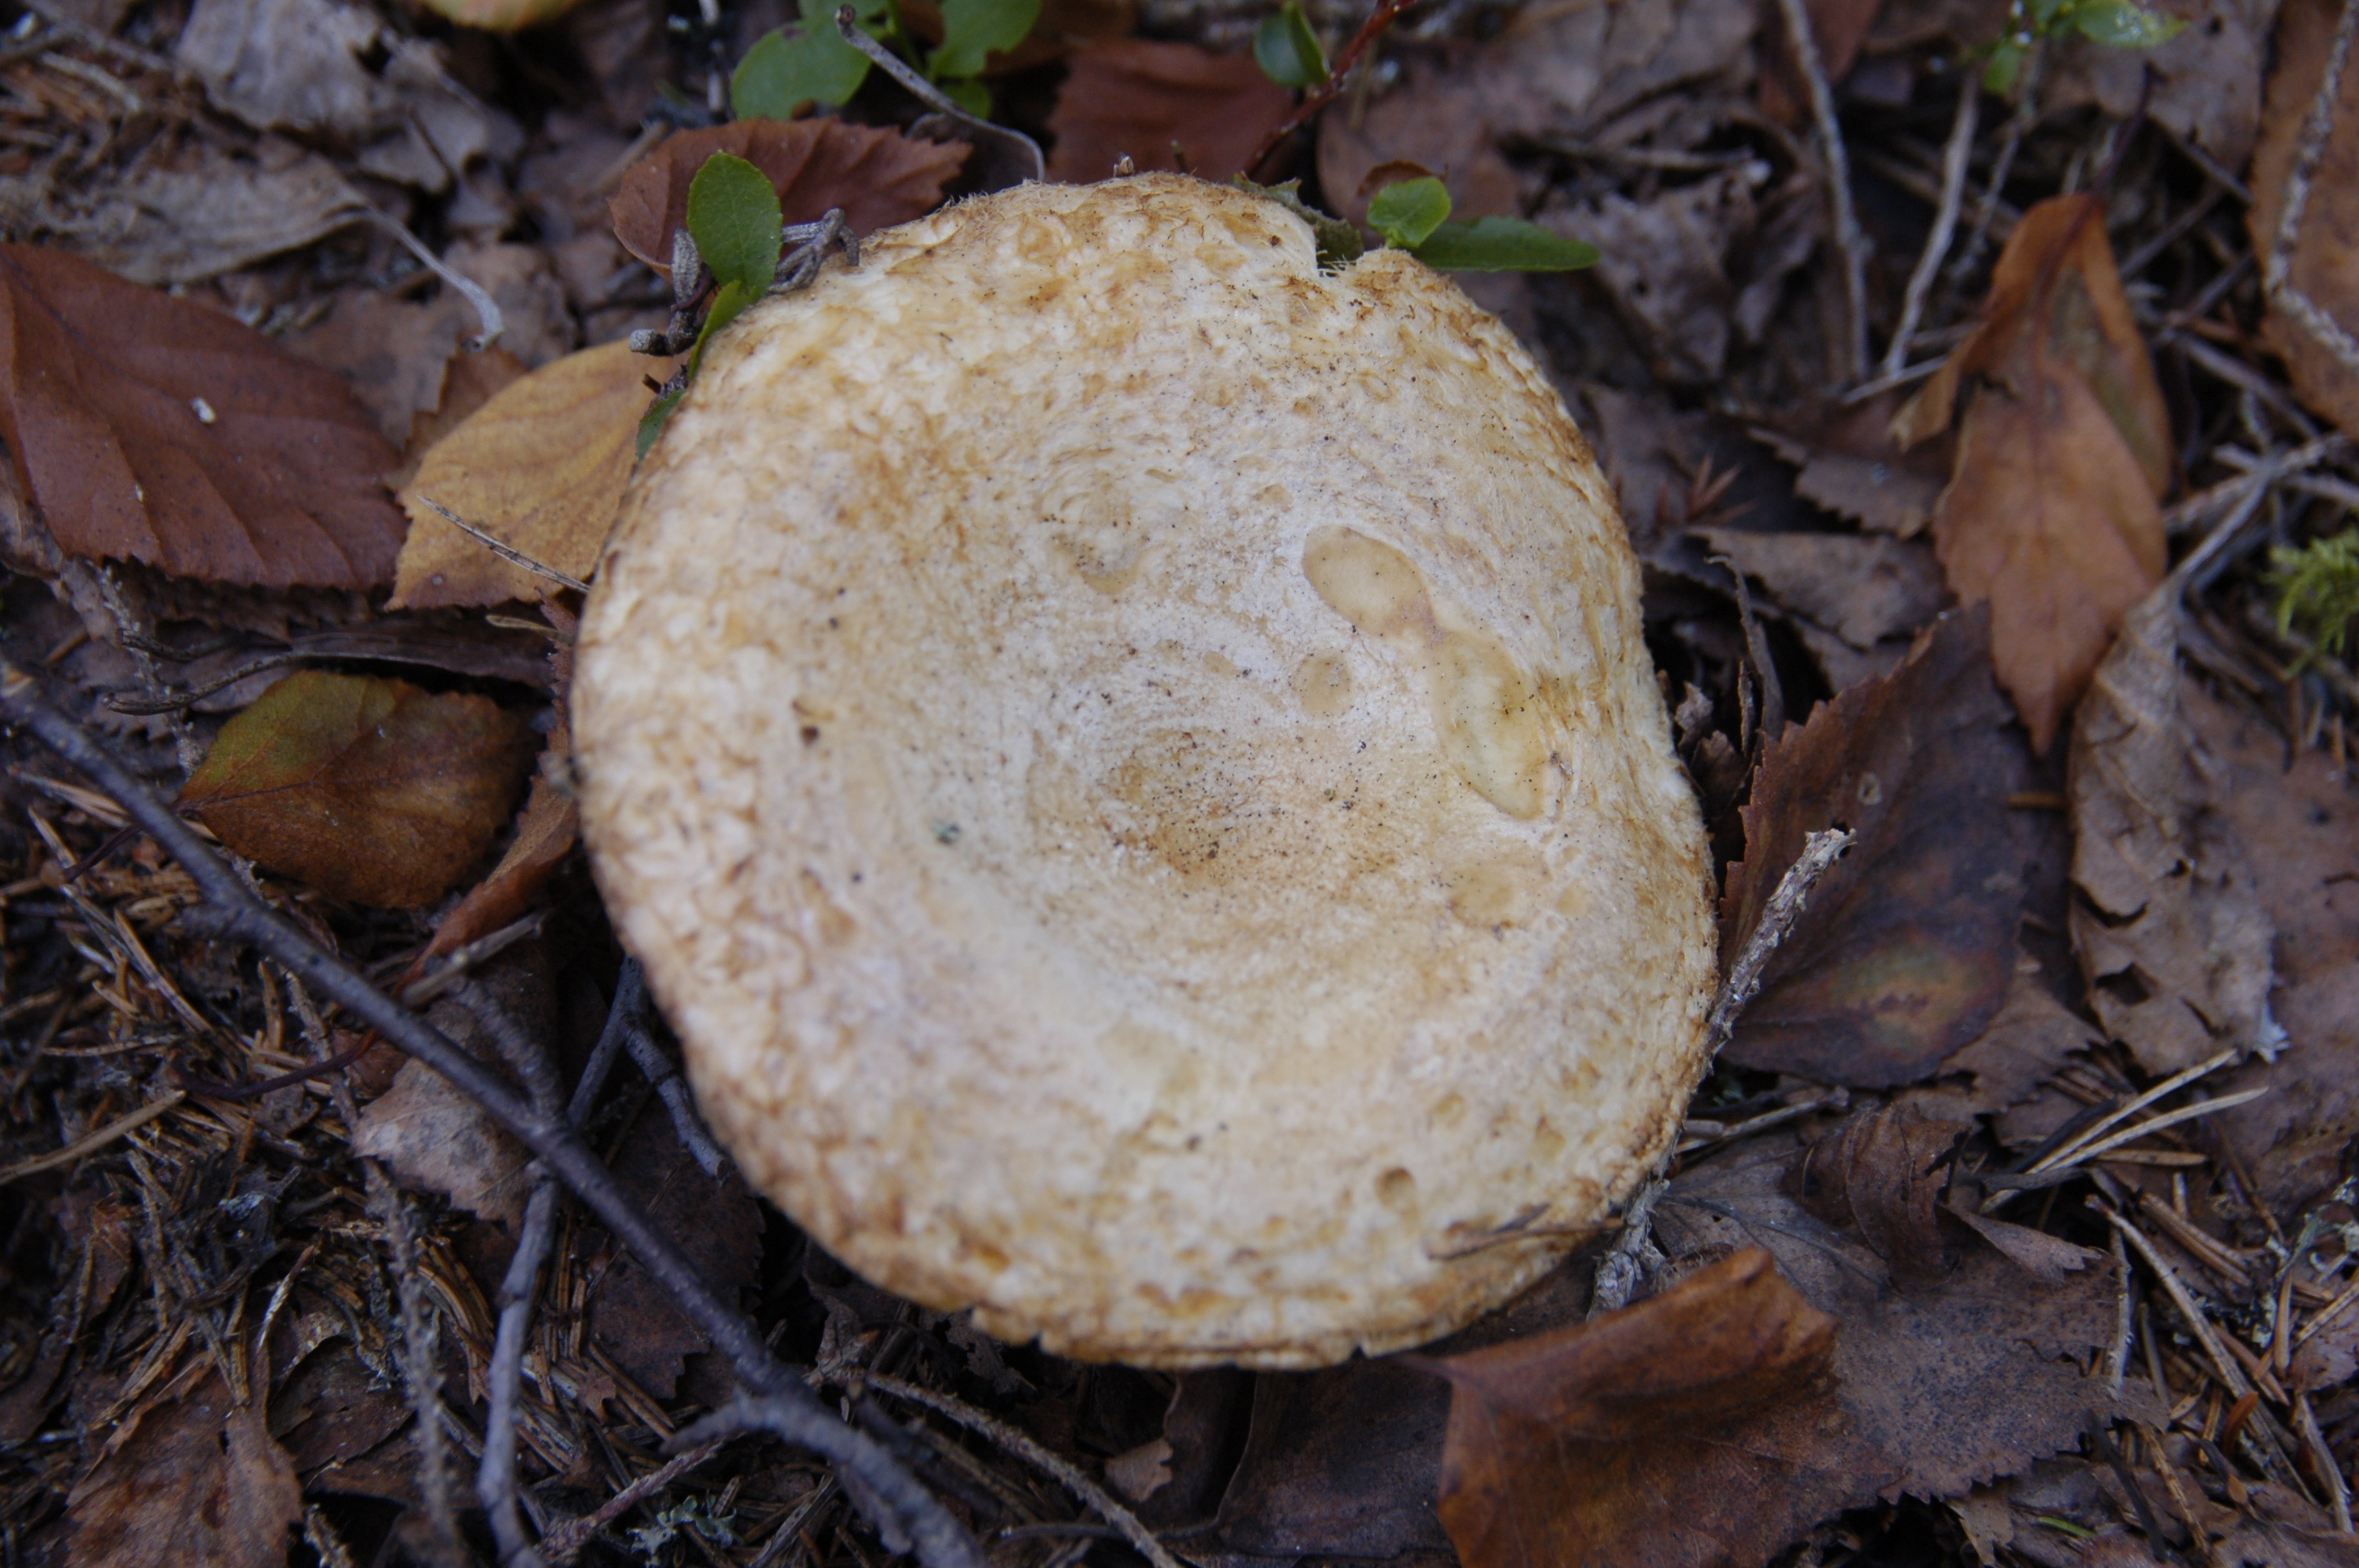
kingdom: Fungi
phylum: Basidiomycota
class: Agaricomycetes
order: Russulales
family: Russulaceae
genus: Lactarius
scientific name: Lactarius scrobiculatus
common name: Spotted milkcap
